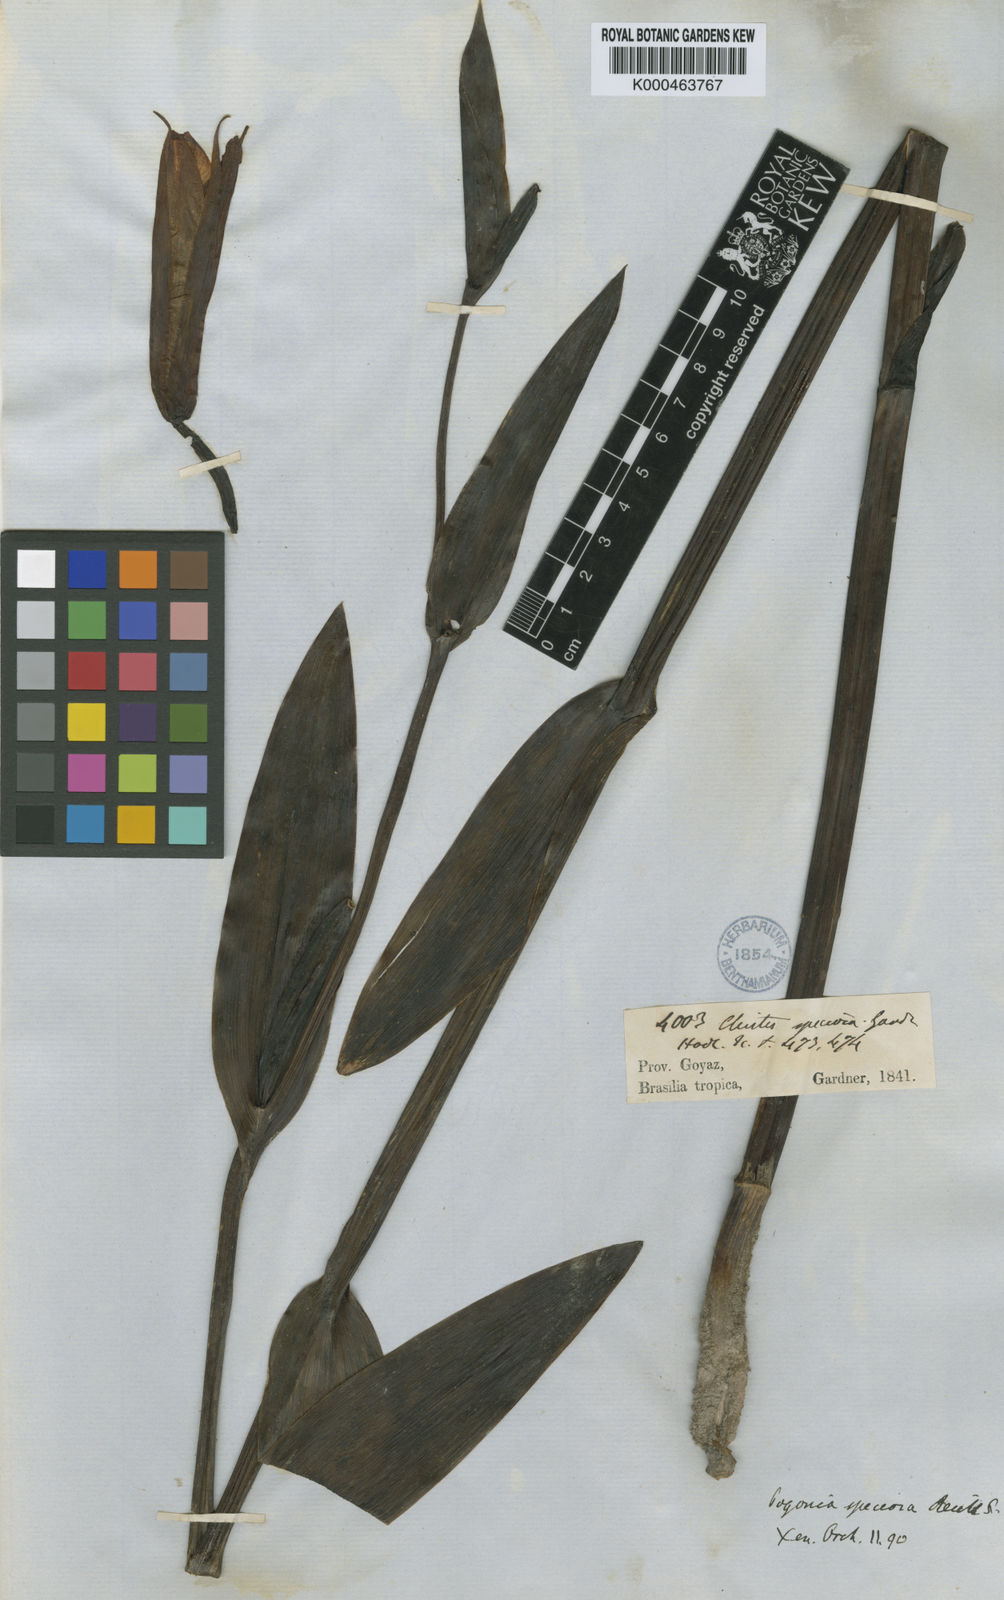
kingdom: Plantae
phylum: Tracheophyta
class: Liliopsida
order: Asparagales
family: Orchidaceae
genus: Cleistes
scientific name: Cleistes speciosa
